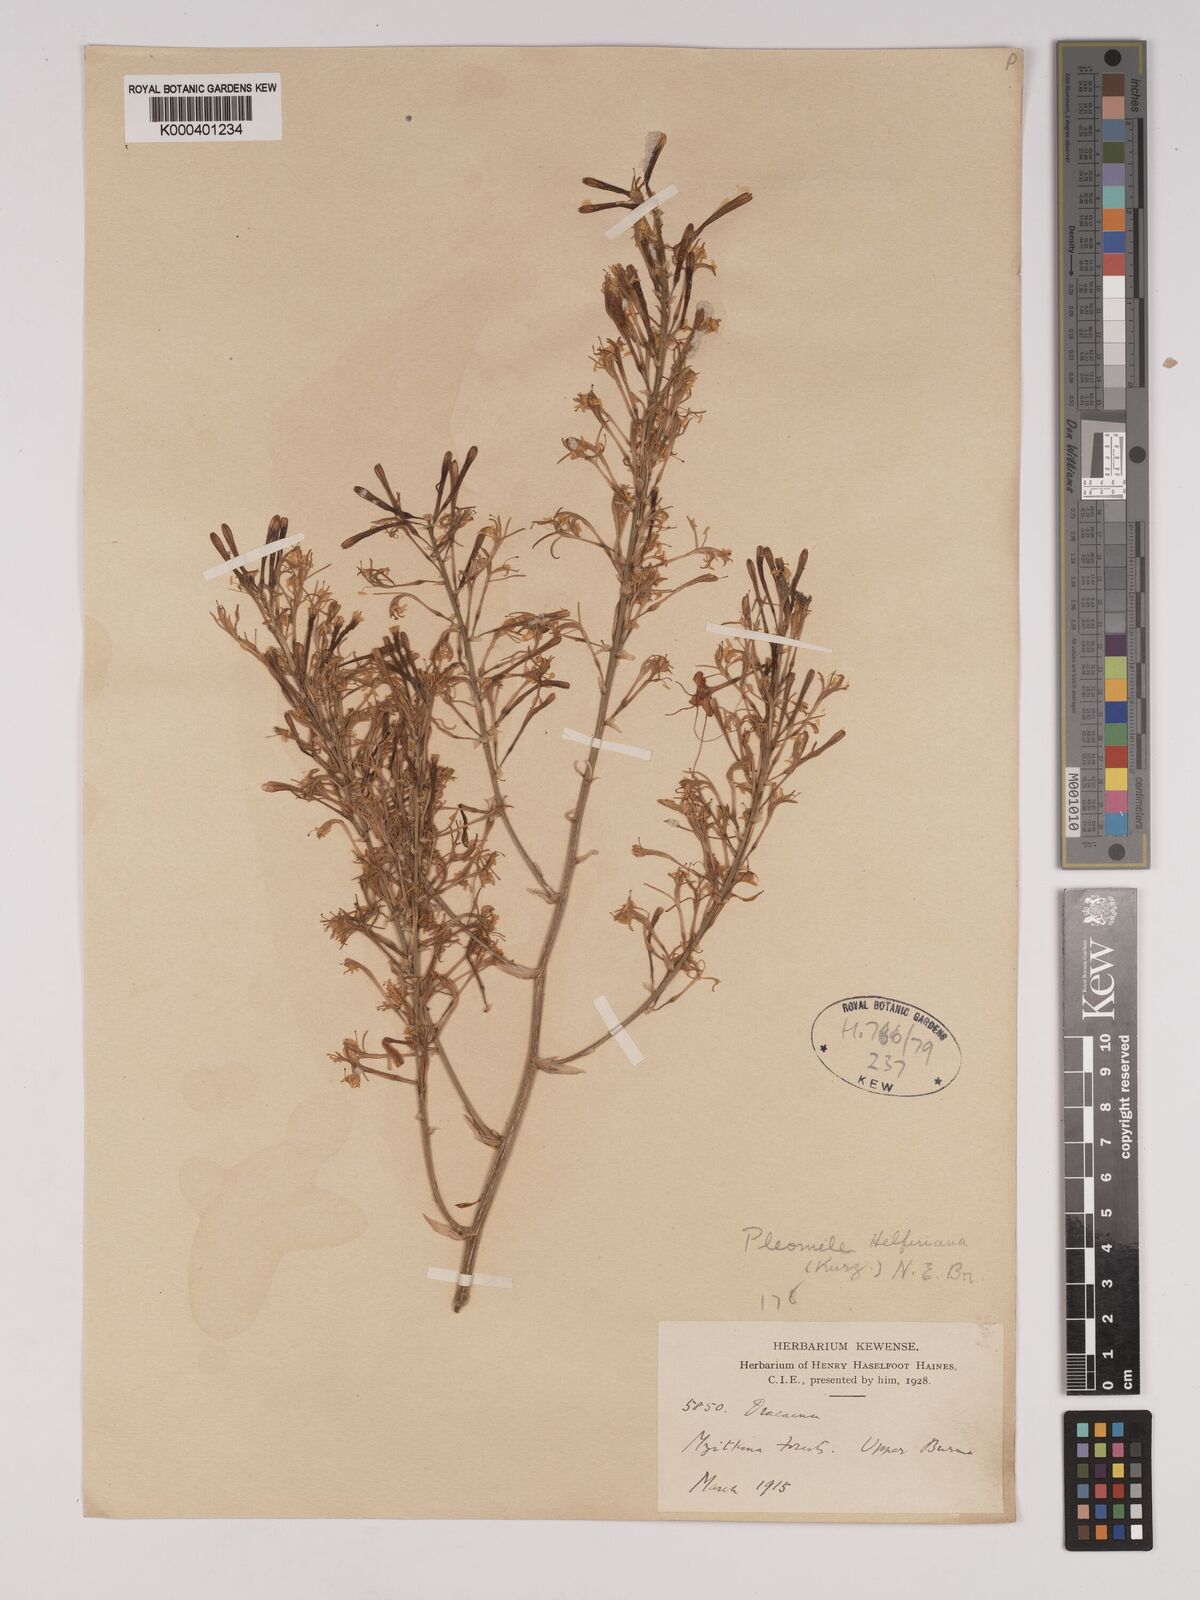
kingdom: Plantae
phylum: Tracheophyta
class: Liliopsida
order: Asparagales
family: Asparagaceae
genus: Dracaena
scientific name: Dracaena griffithii
